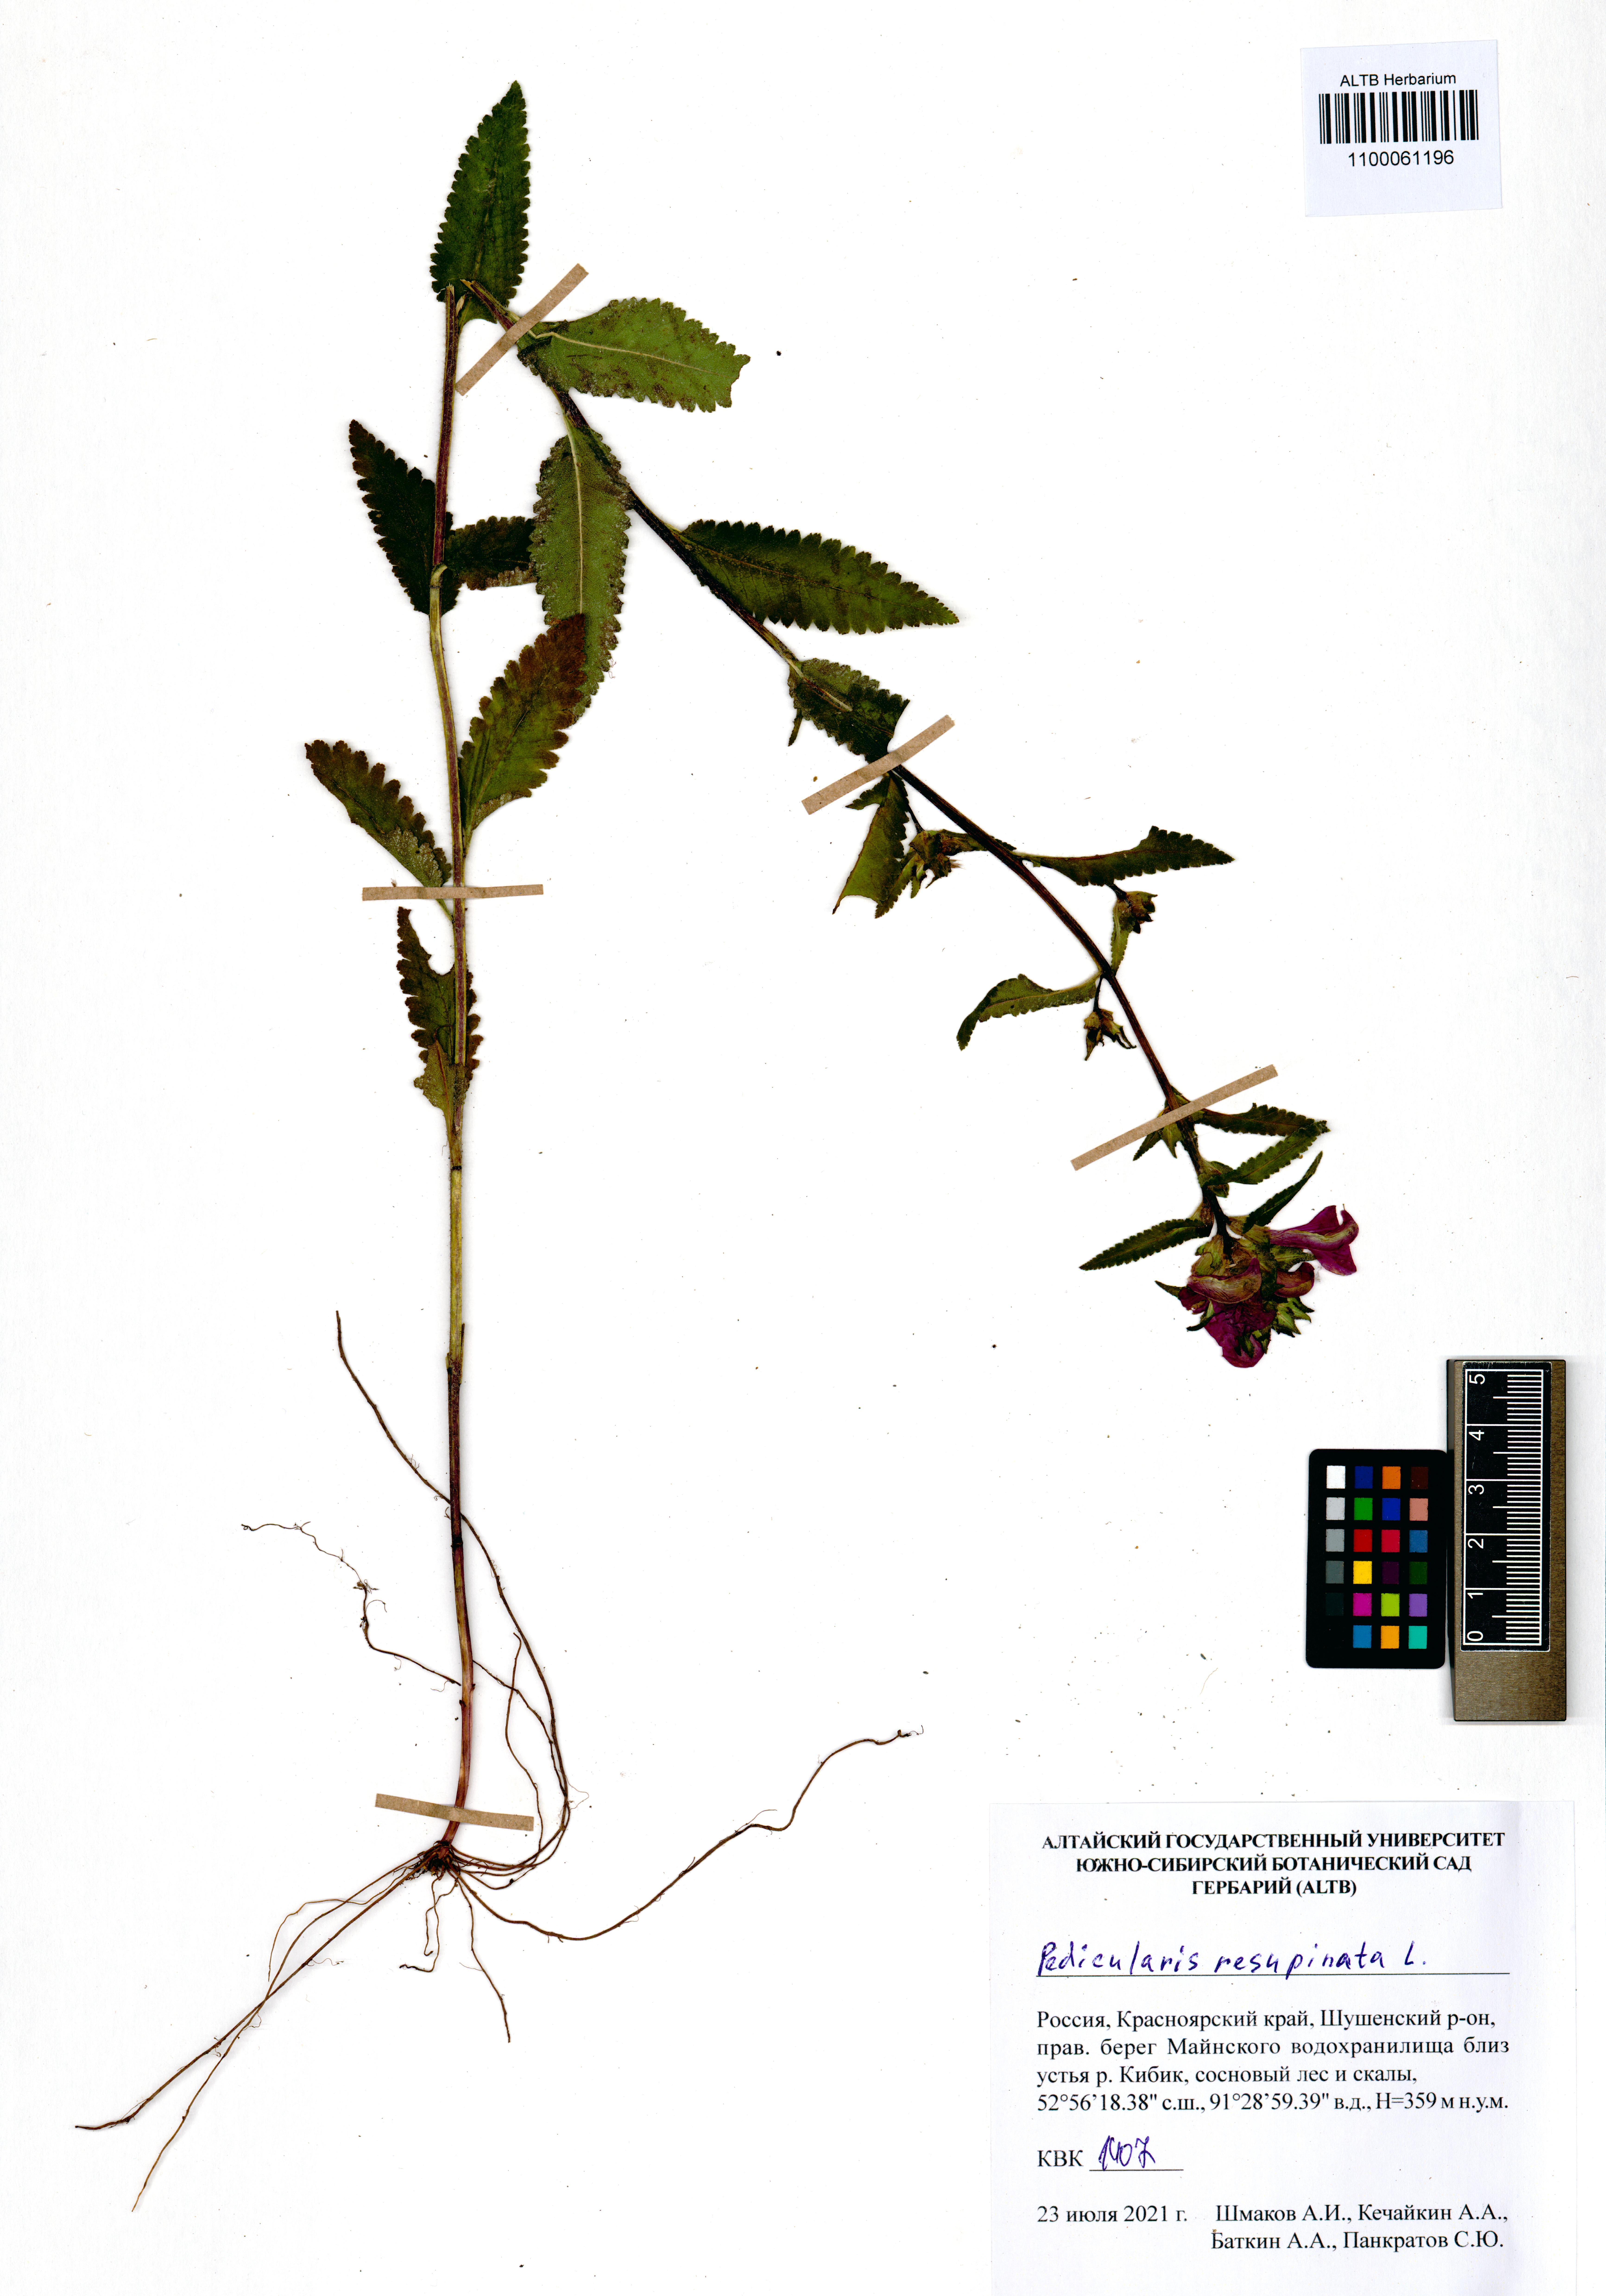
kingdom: Plantae
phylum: Tracheophyta
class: Magnoliopsida
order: Lamiales
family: Orobanchaceae
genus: Pedicularis
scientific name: Pedicularis resupinata
